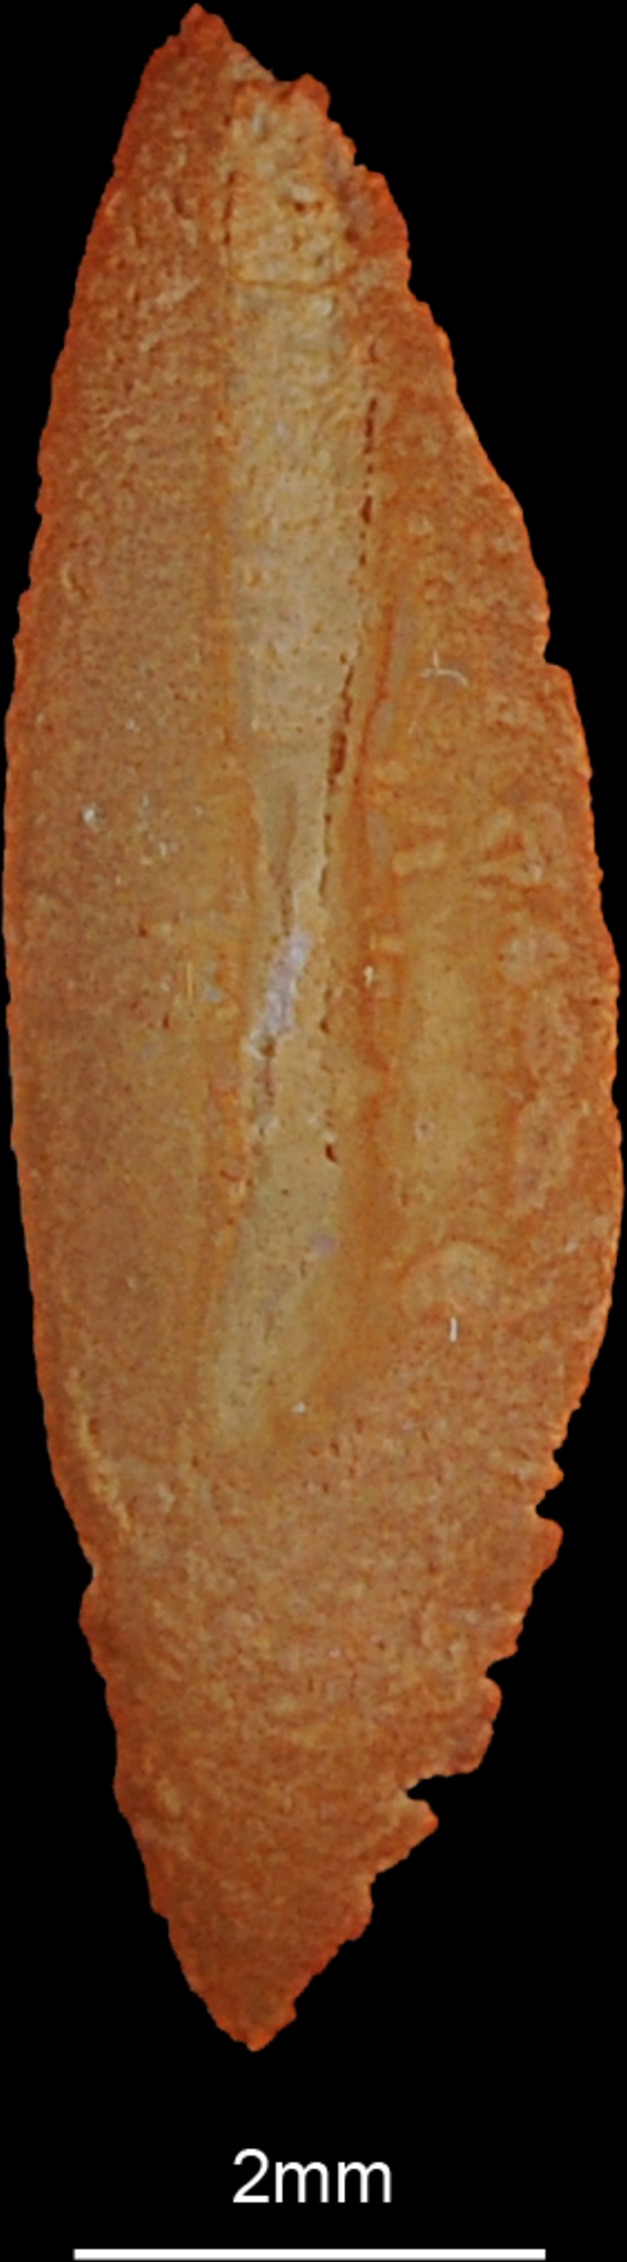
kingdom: Animalia
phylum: Chordata
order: Scorpaeniformes
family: Platycephalidae
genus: Platycephalus
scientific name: Platycephalus indicus
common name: Bartail flathead
